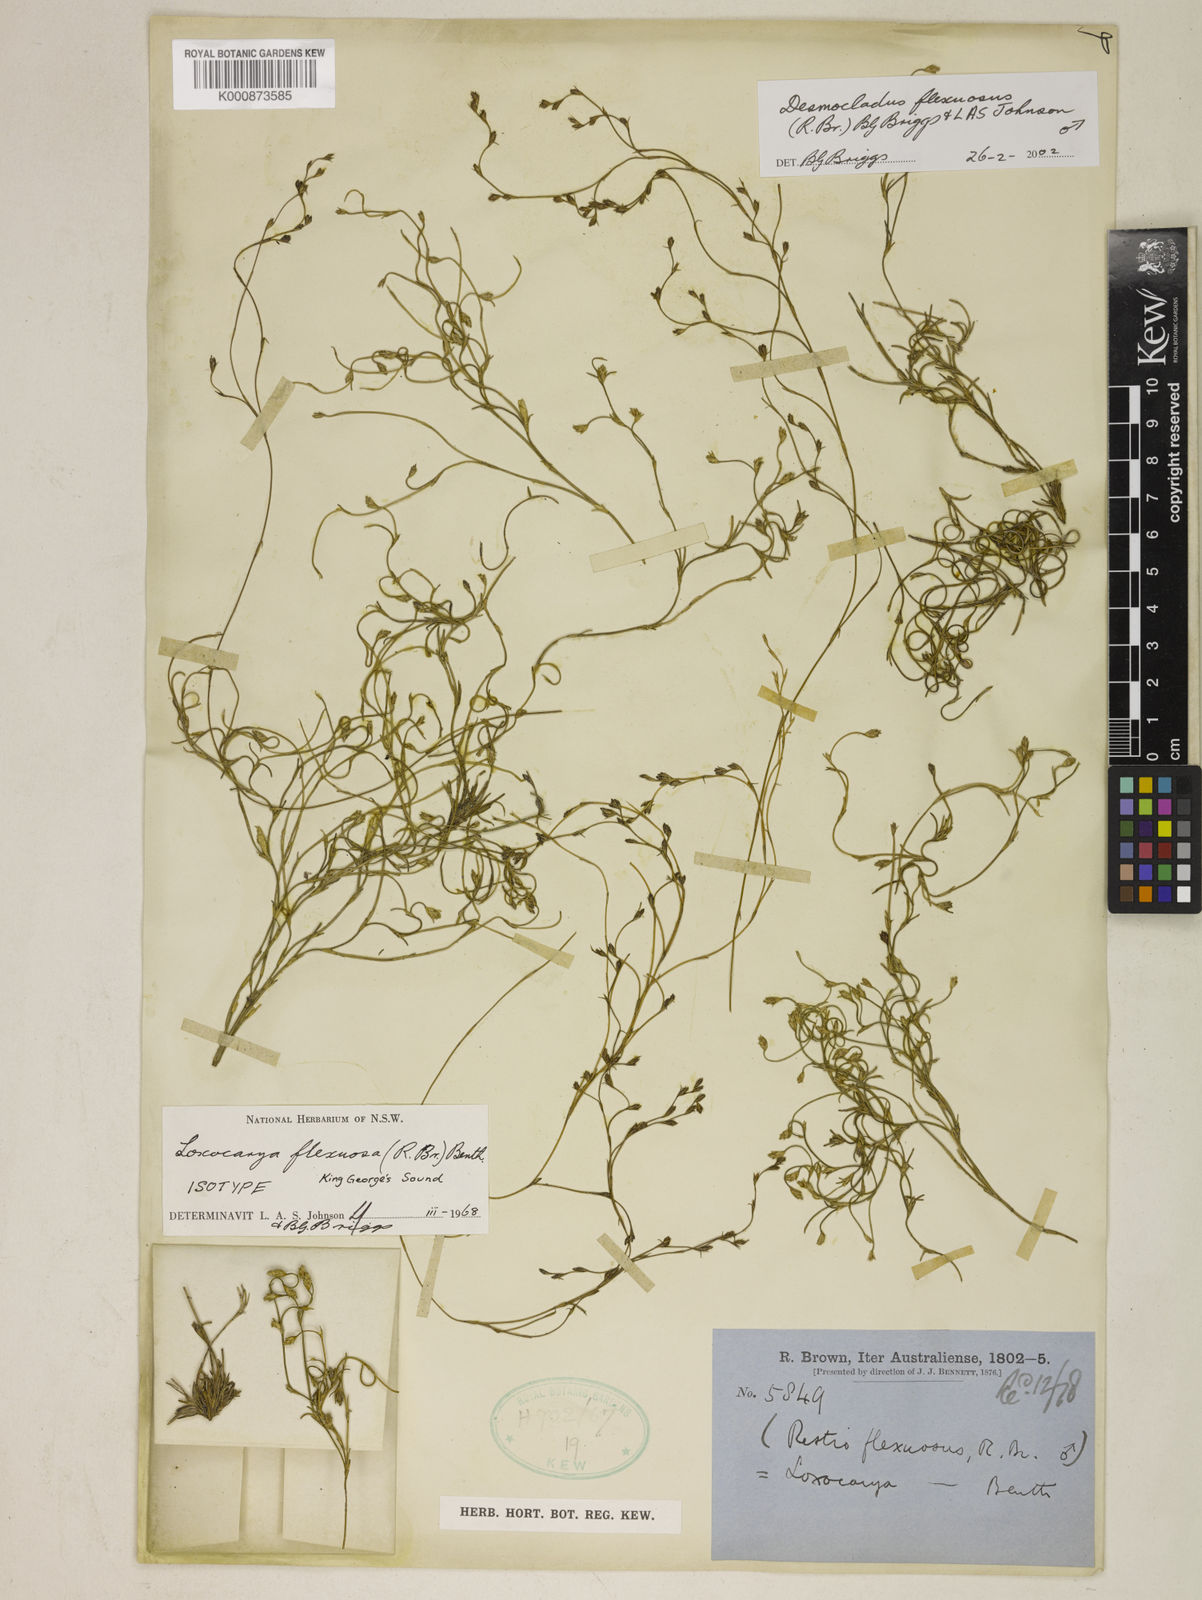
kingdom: Plantae
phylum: Tracheophyta
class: Liliopsida
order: Poales
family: Restionaceae
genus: Desmocladus
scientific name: Desmocladus flexuosus
